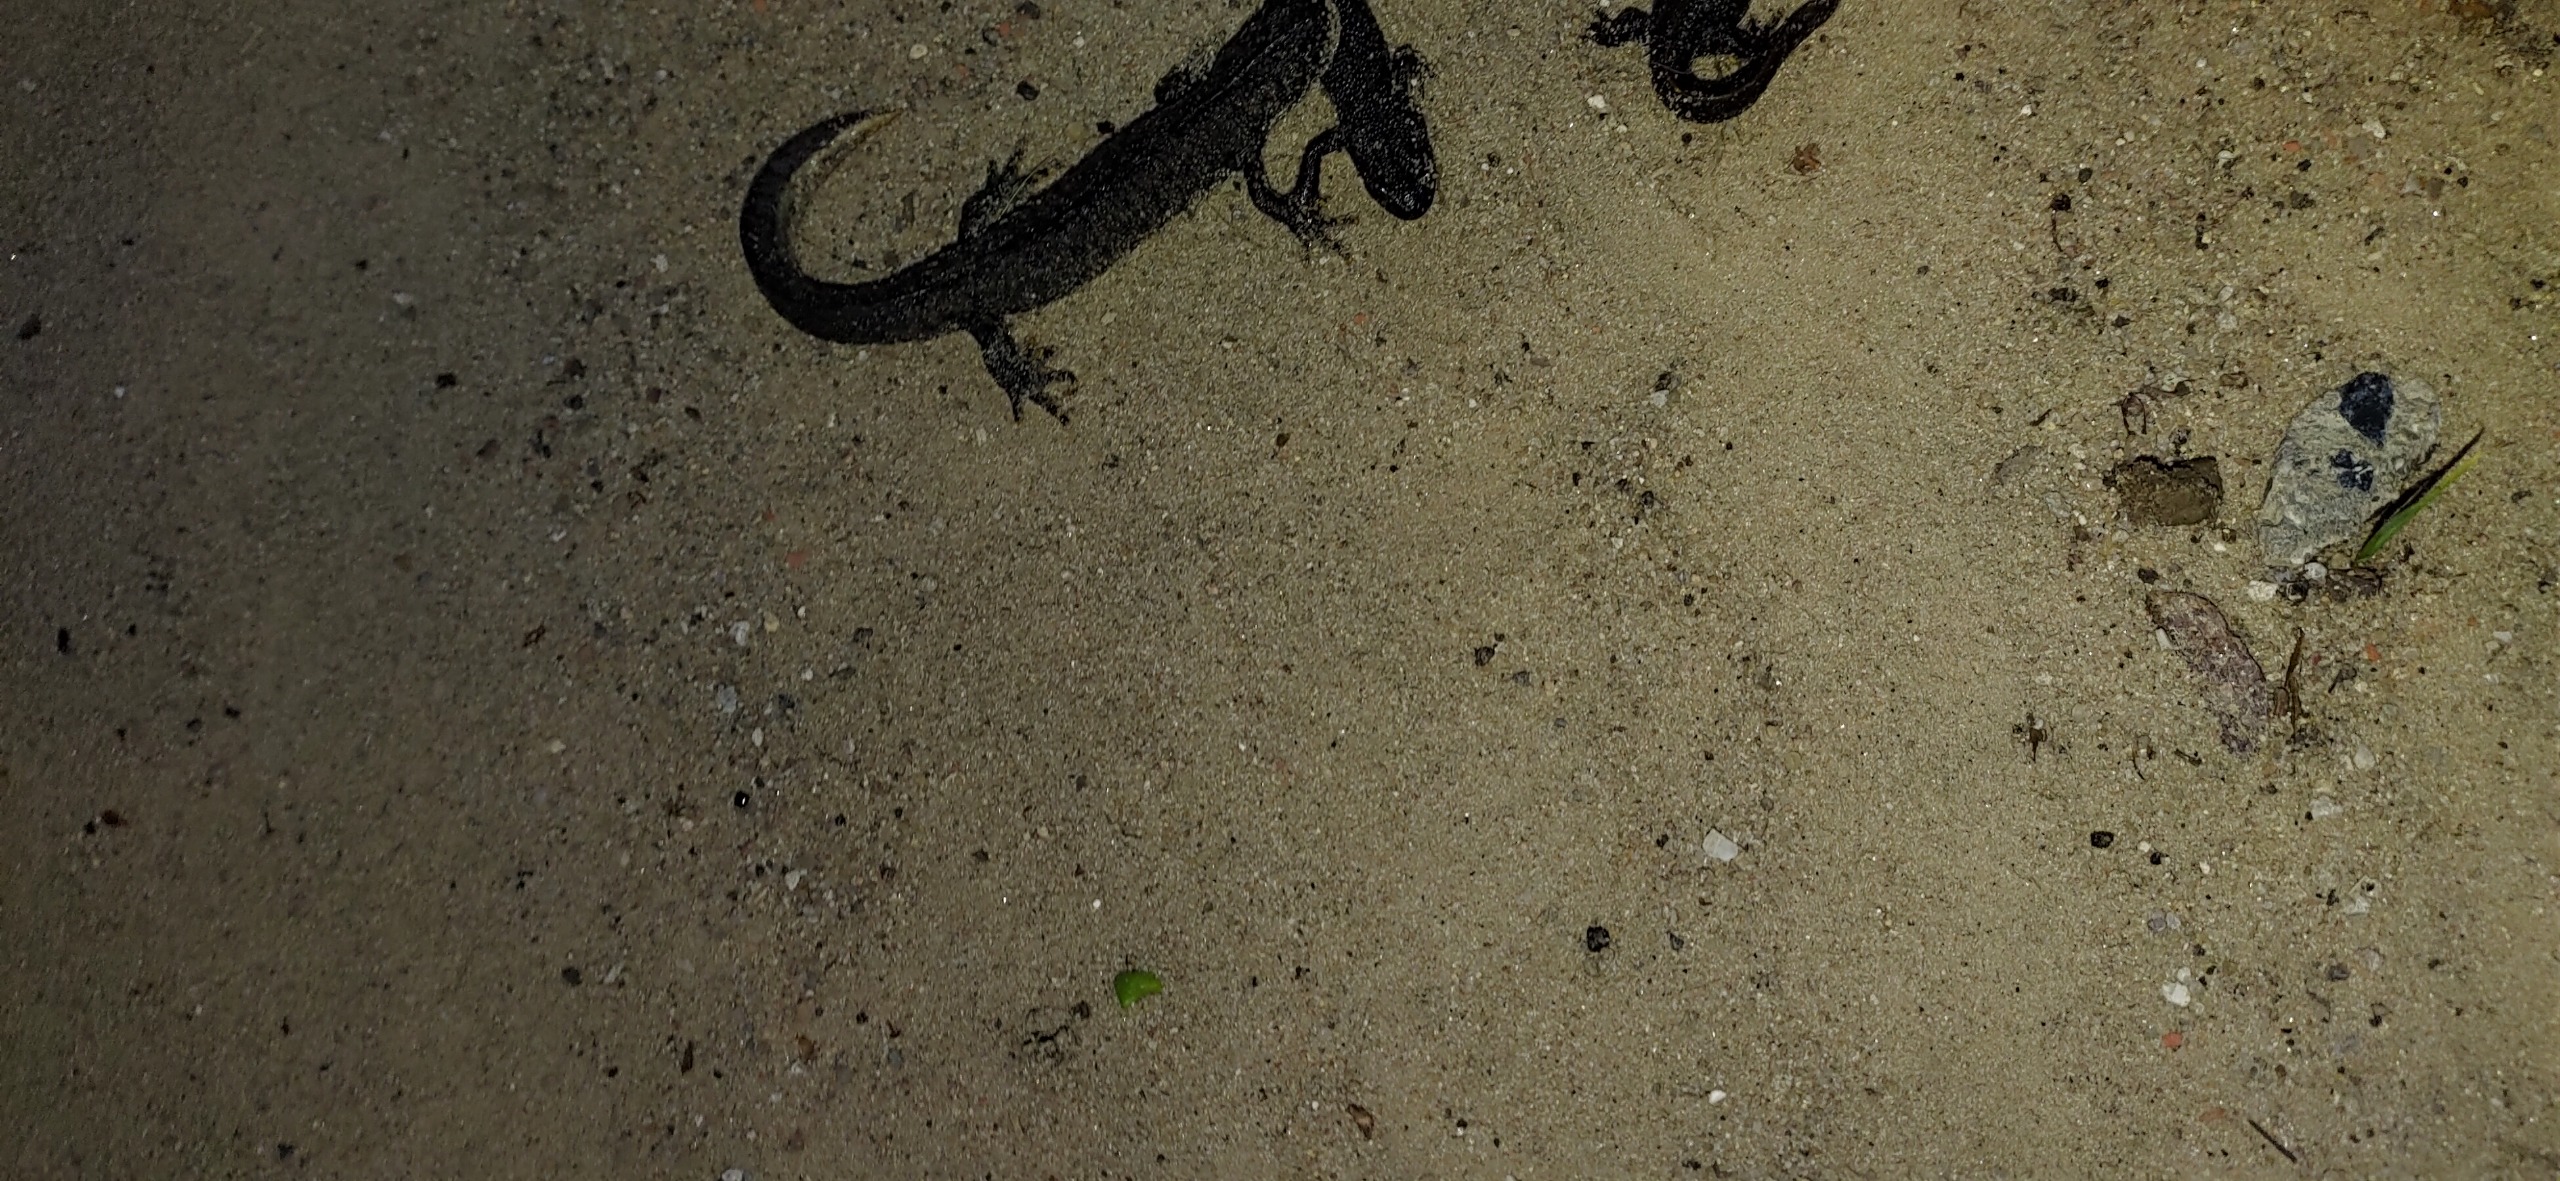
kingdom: Animalia
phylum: Chordata
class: Amphibia
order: Caudata
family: Salamandridae
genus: Triturus
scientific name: Triturus cristatus
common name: Stor vandsalamander
